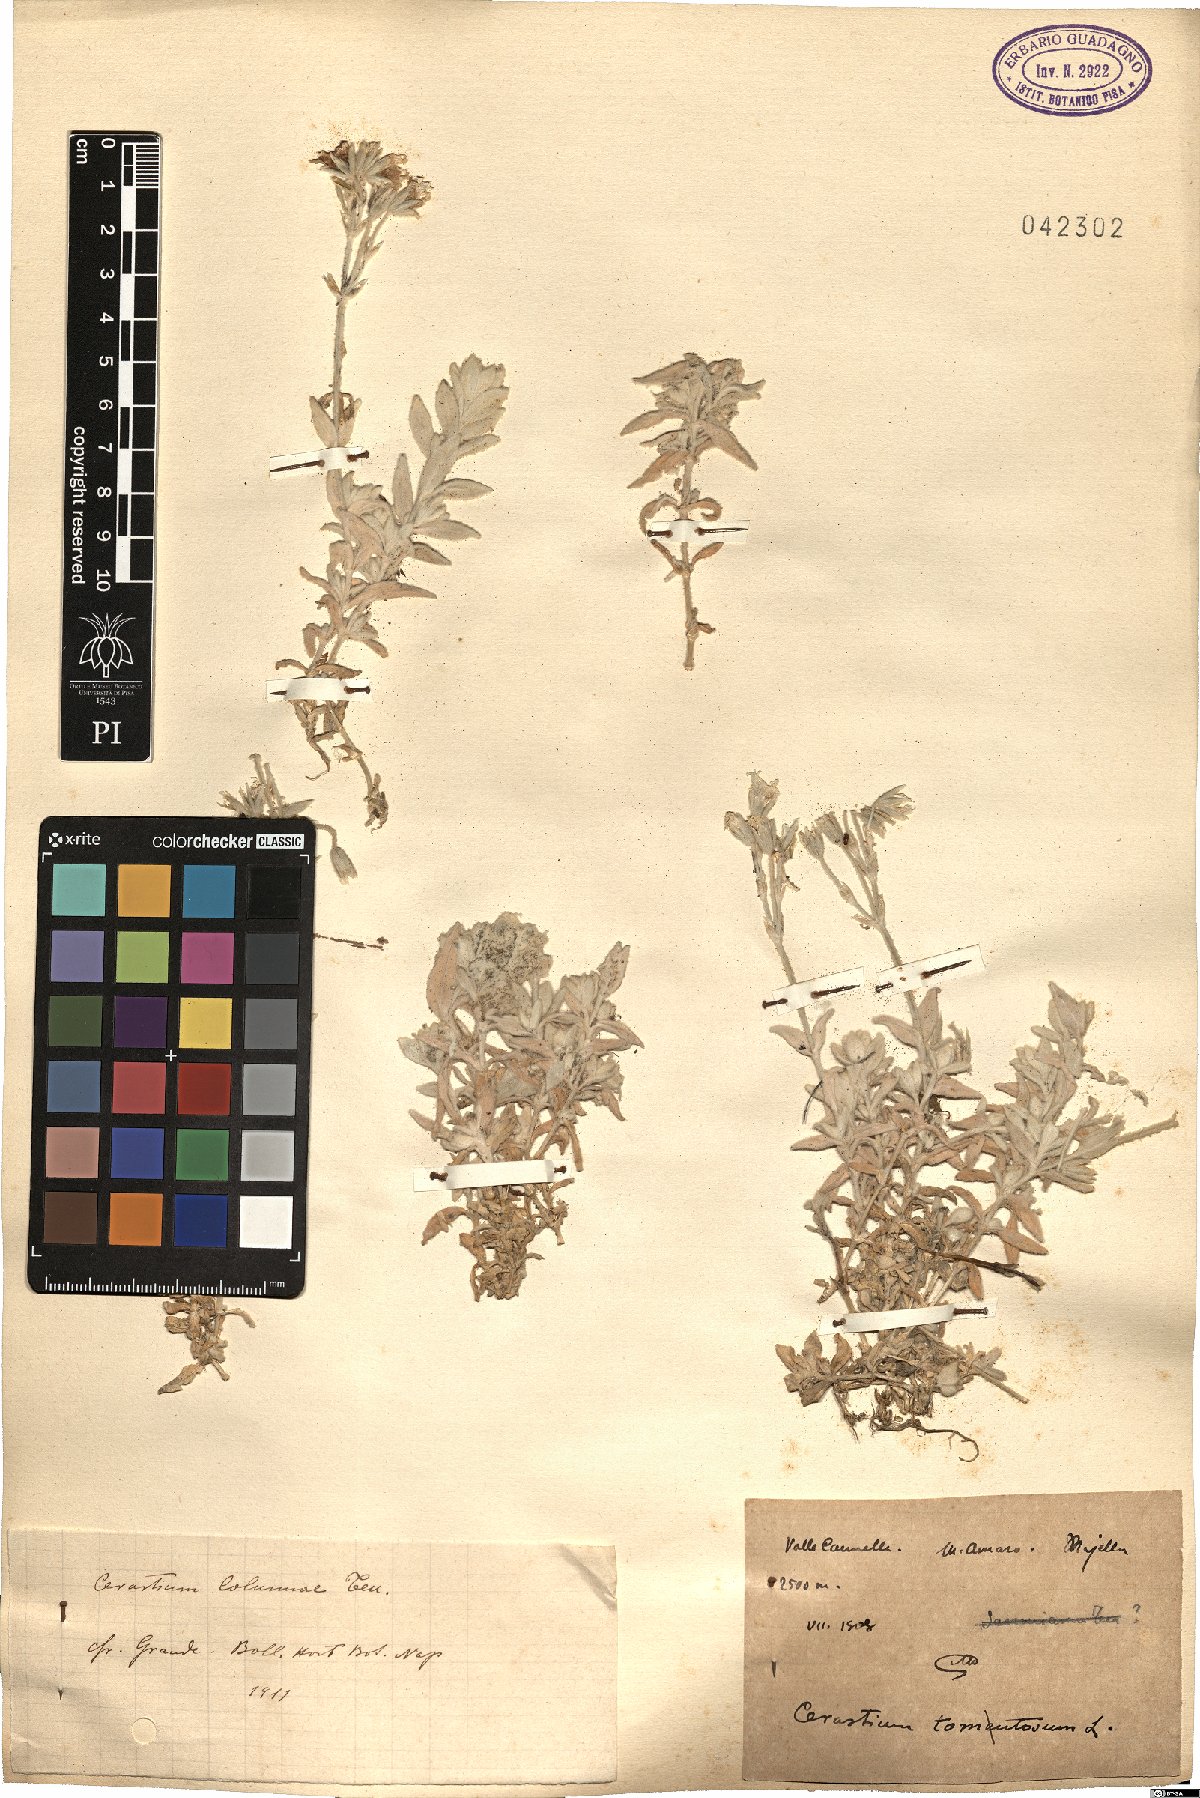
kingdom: Plantae
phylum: Tracheophyta
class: Magnoliopsida
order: Caryophyllales
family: Caryophyllaceae
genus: Cerastium
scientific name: Cerastium tomentosum
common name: Snow-in-summer
